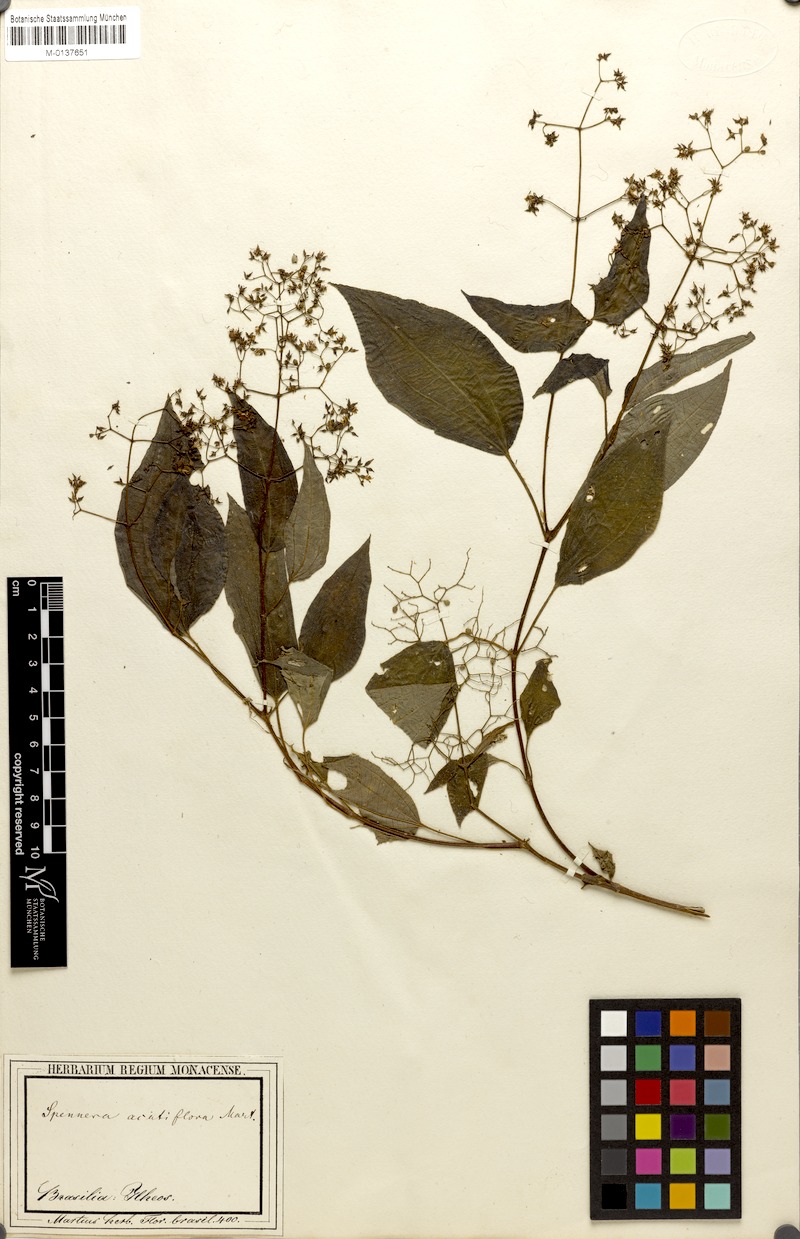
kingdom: Plantae
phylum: Tracheophyta
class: Magnoliopsida
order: Myrtales
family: Melastomataceae
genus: Aciotis
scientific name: Aciotis indecora
